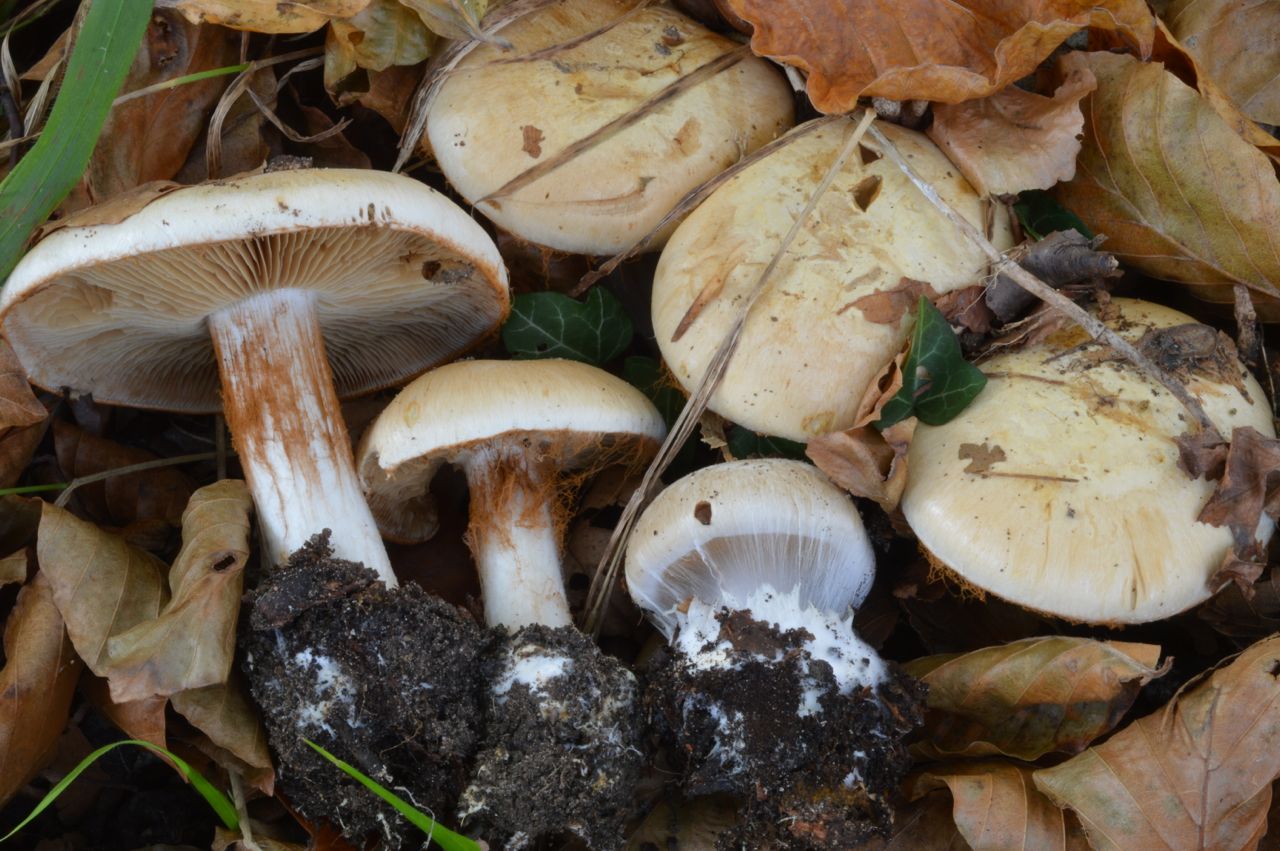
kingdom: Fungi
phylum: Basidiomycota
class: Agaricomycetes
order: Agaricales
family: Cortinariaceae
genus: Cortinarius
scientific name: Cortinarius foetens
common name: stribet slørhat
